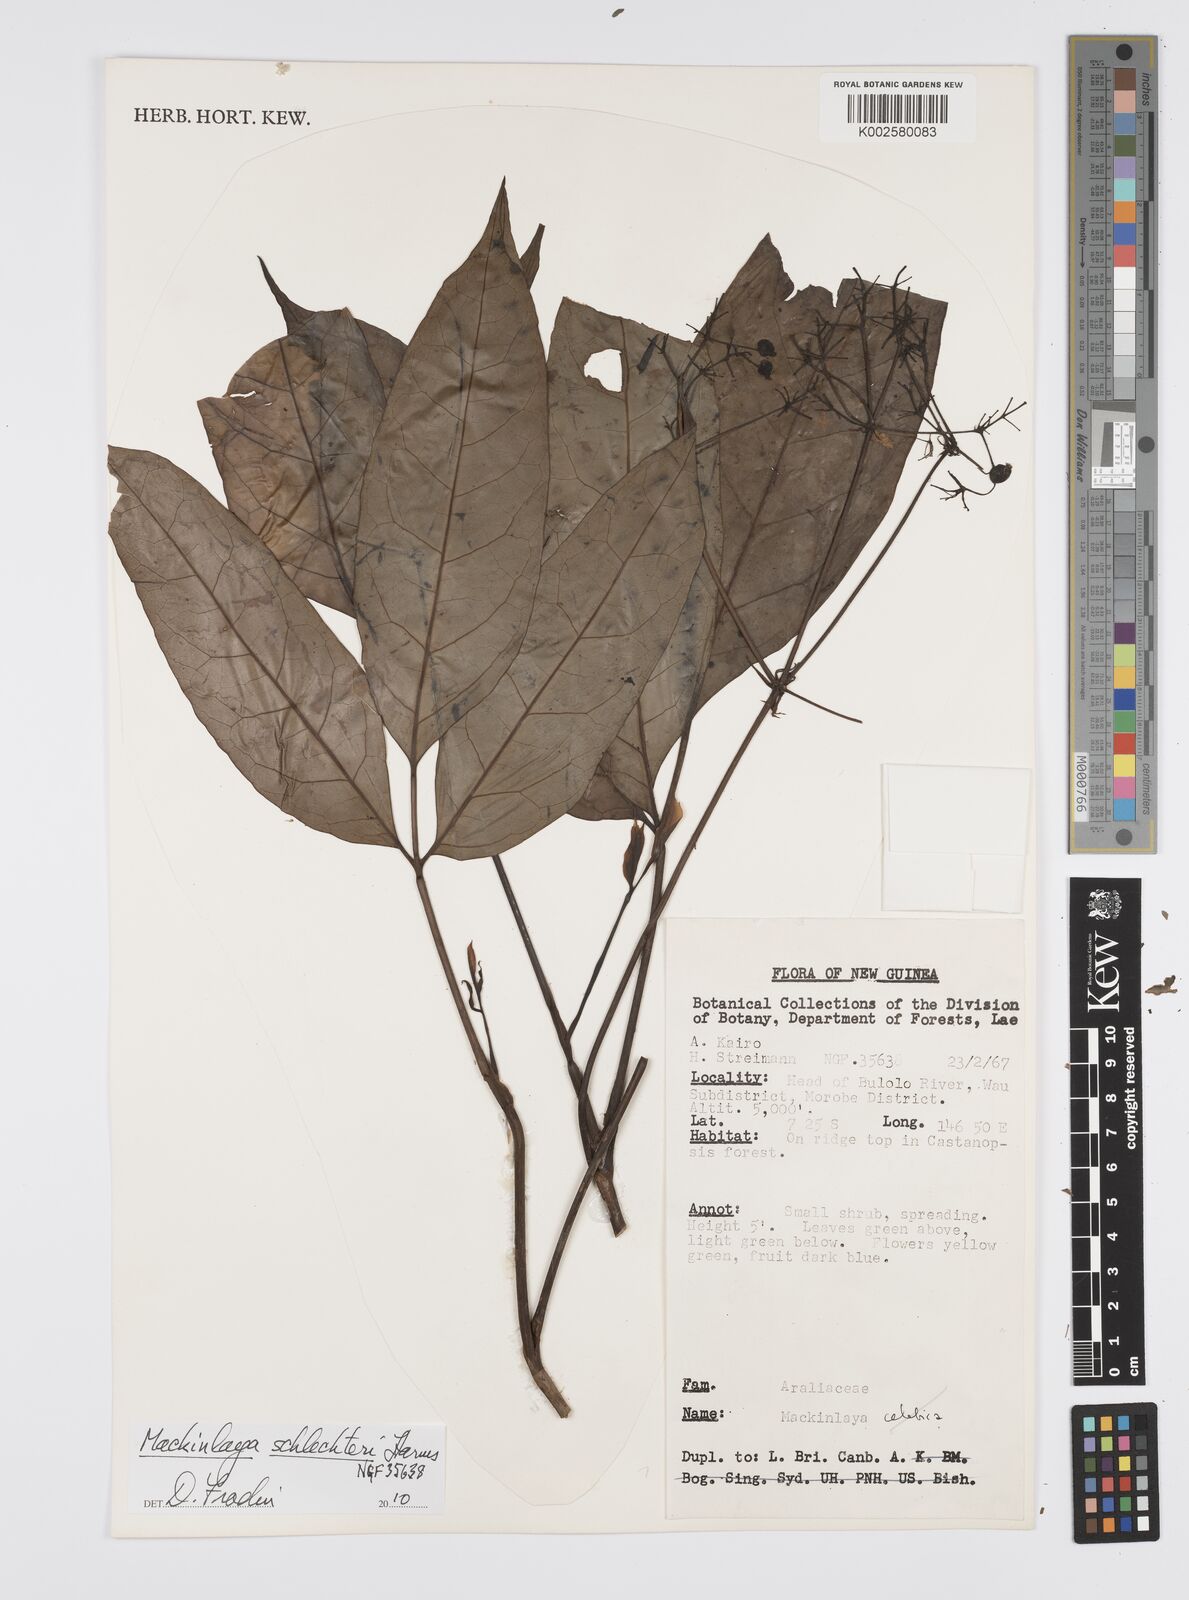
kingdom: Plantae
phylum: Tracheophyta
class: Magnoliopsida
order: Apiales
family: Apiaceae
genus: Mackinlaya
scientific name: Mackinlaya schlechteri
